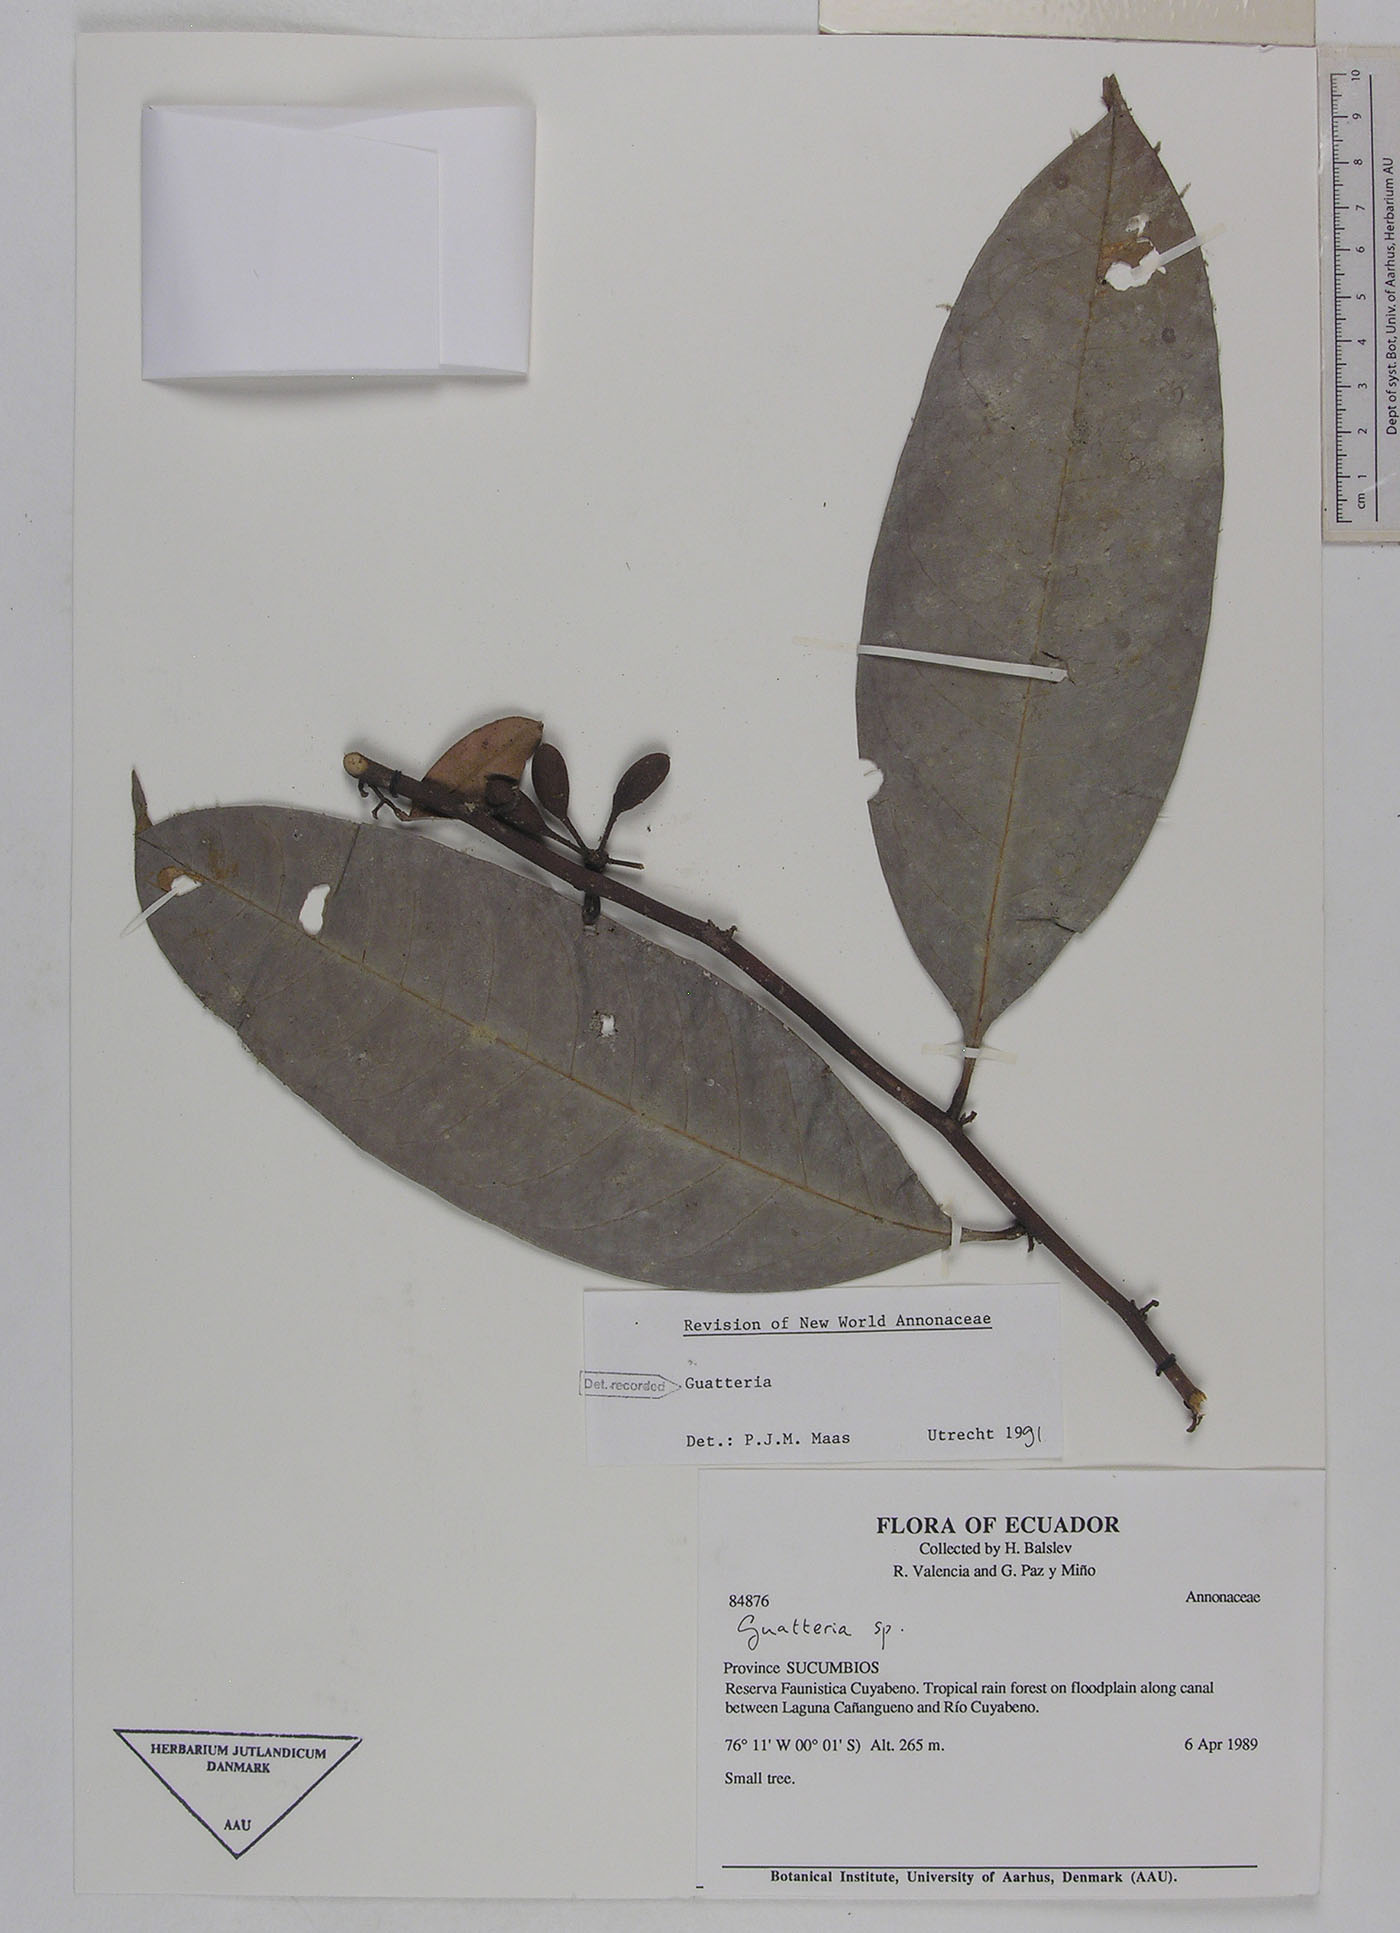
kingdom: Plantae
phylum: Tracheophyta
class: Magnoliopsida
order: Magnoliales
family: Annonaceae
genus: Guatteria
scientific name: Guatteria scalarinervia
